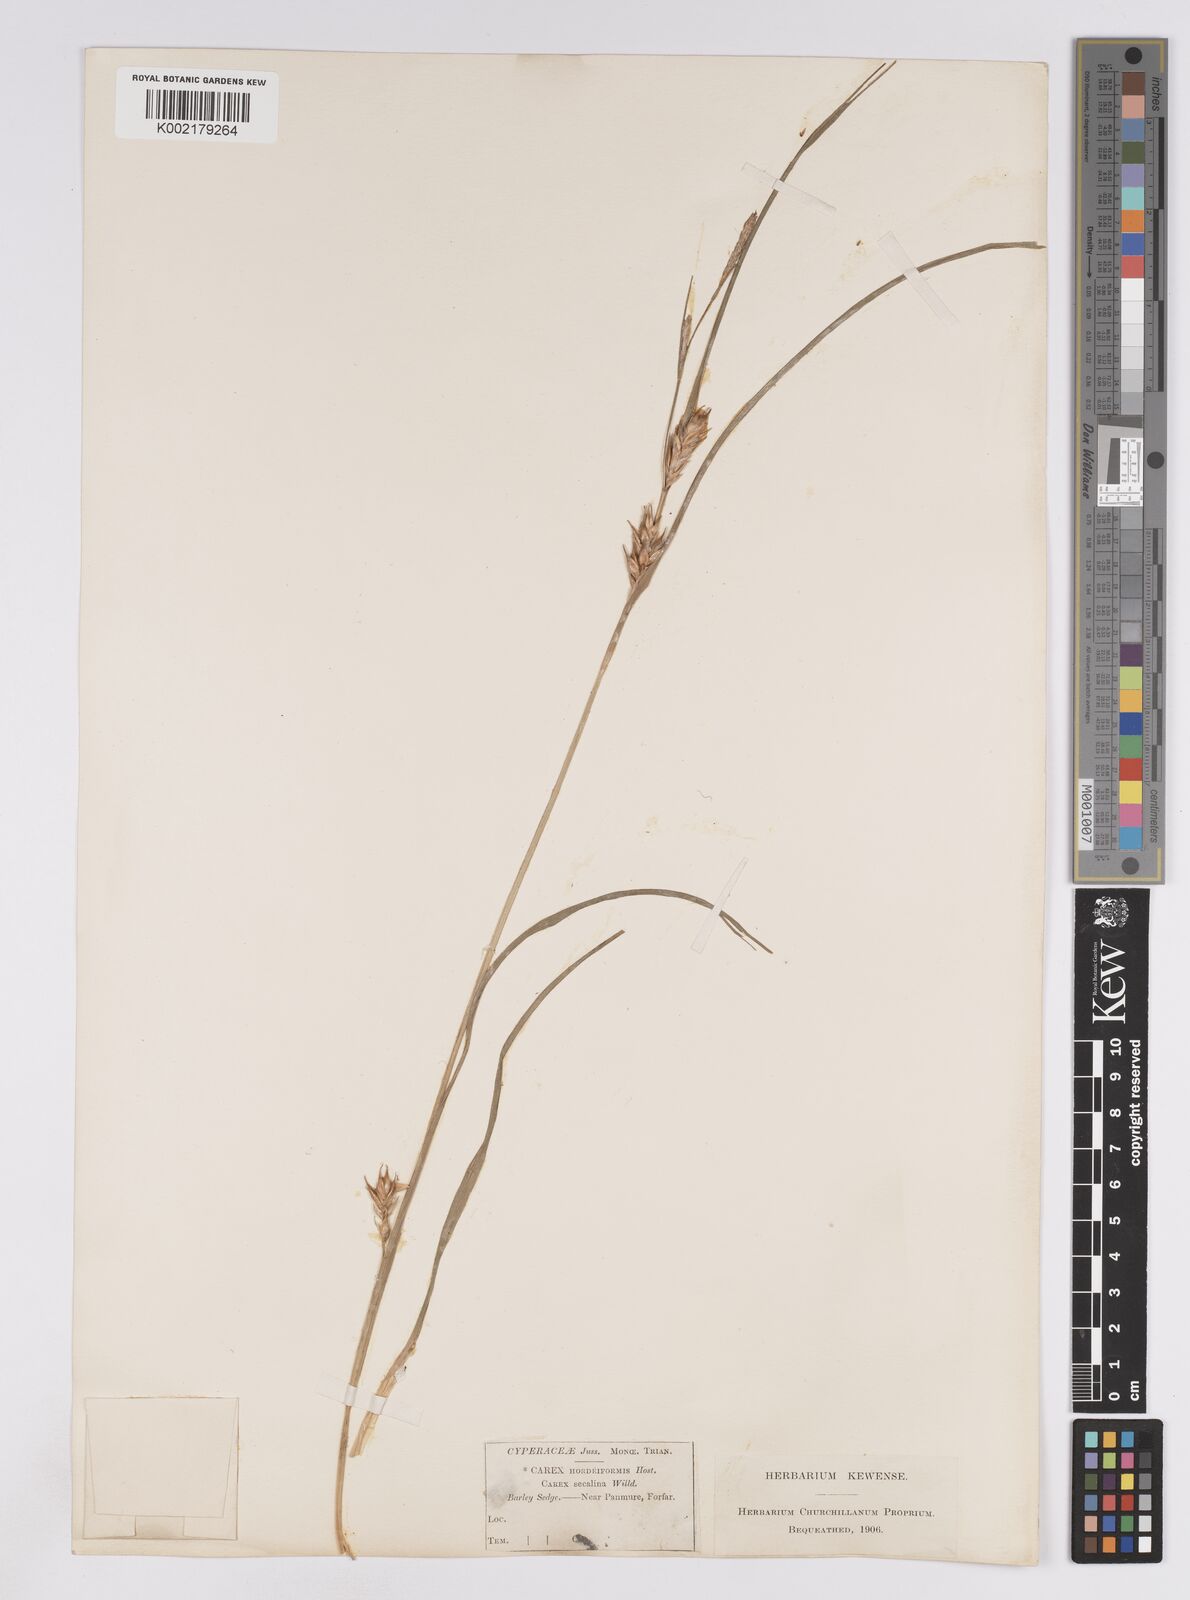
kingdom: Plantae
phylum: Tracheophyta
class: Liliopsida
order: Poales
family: Cyperaceae
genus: Carex
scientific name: Carex hordeistichos
